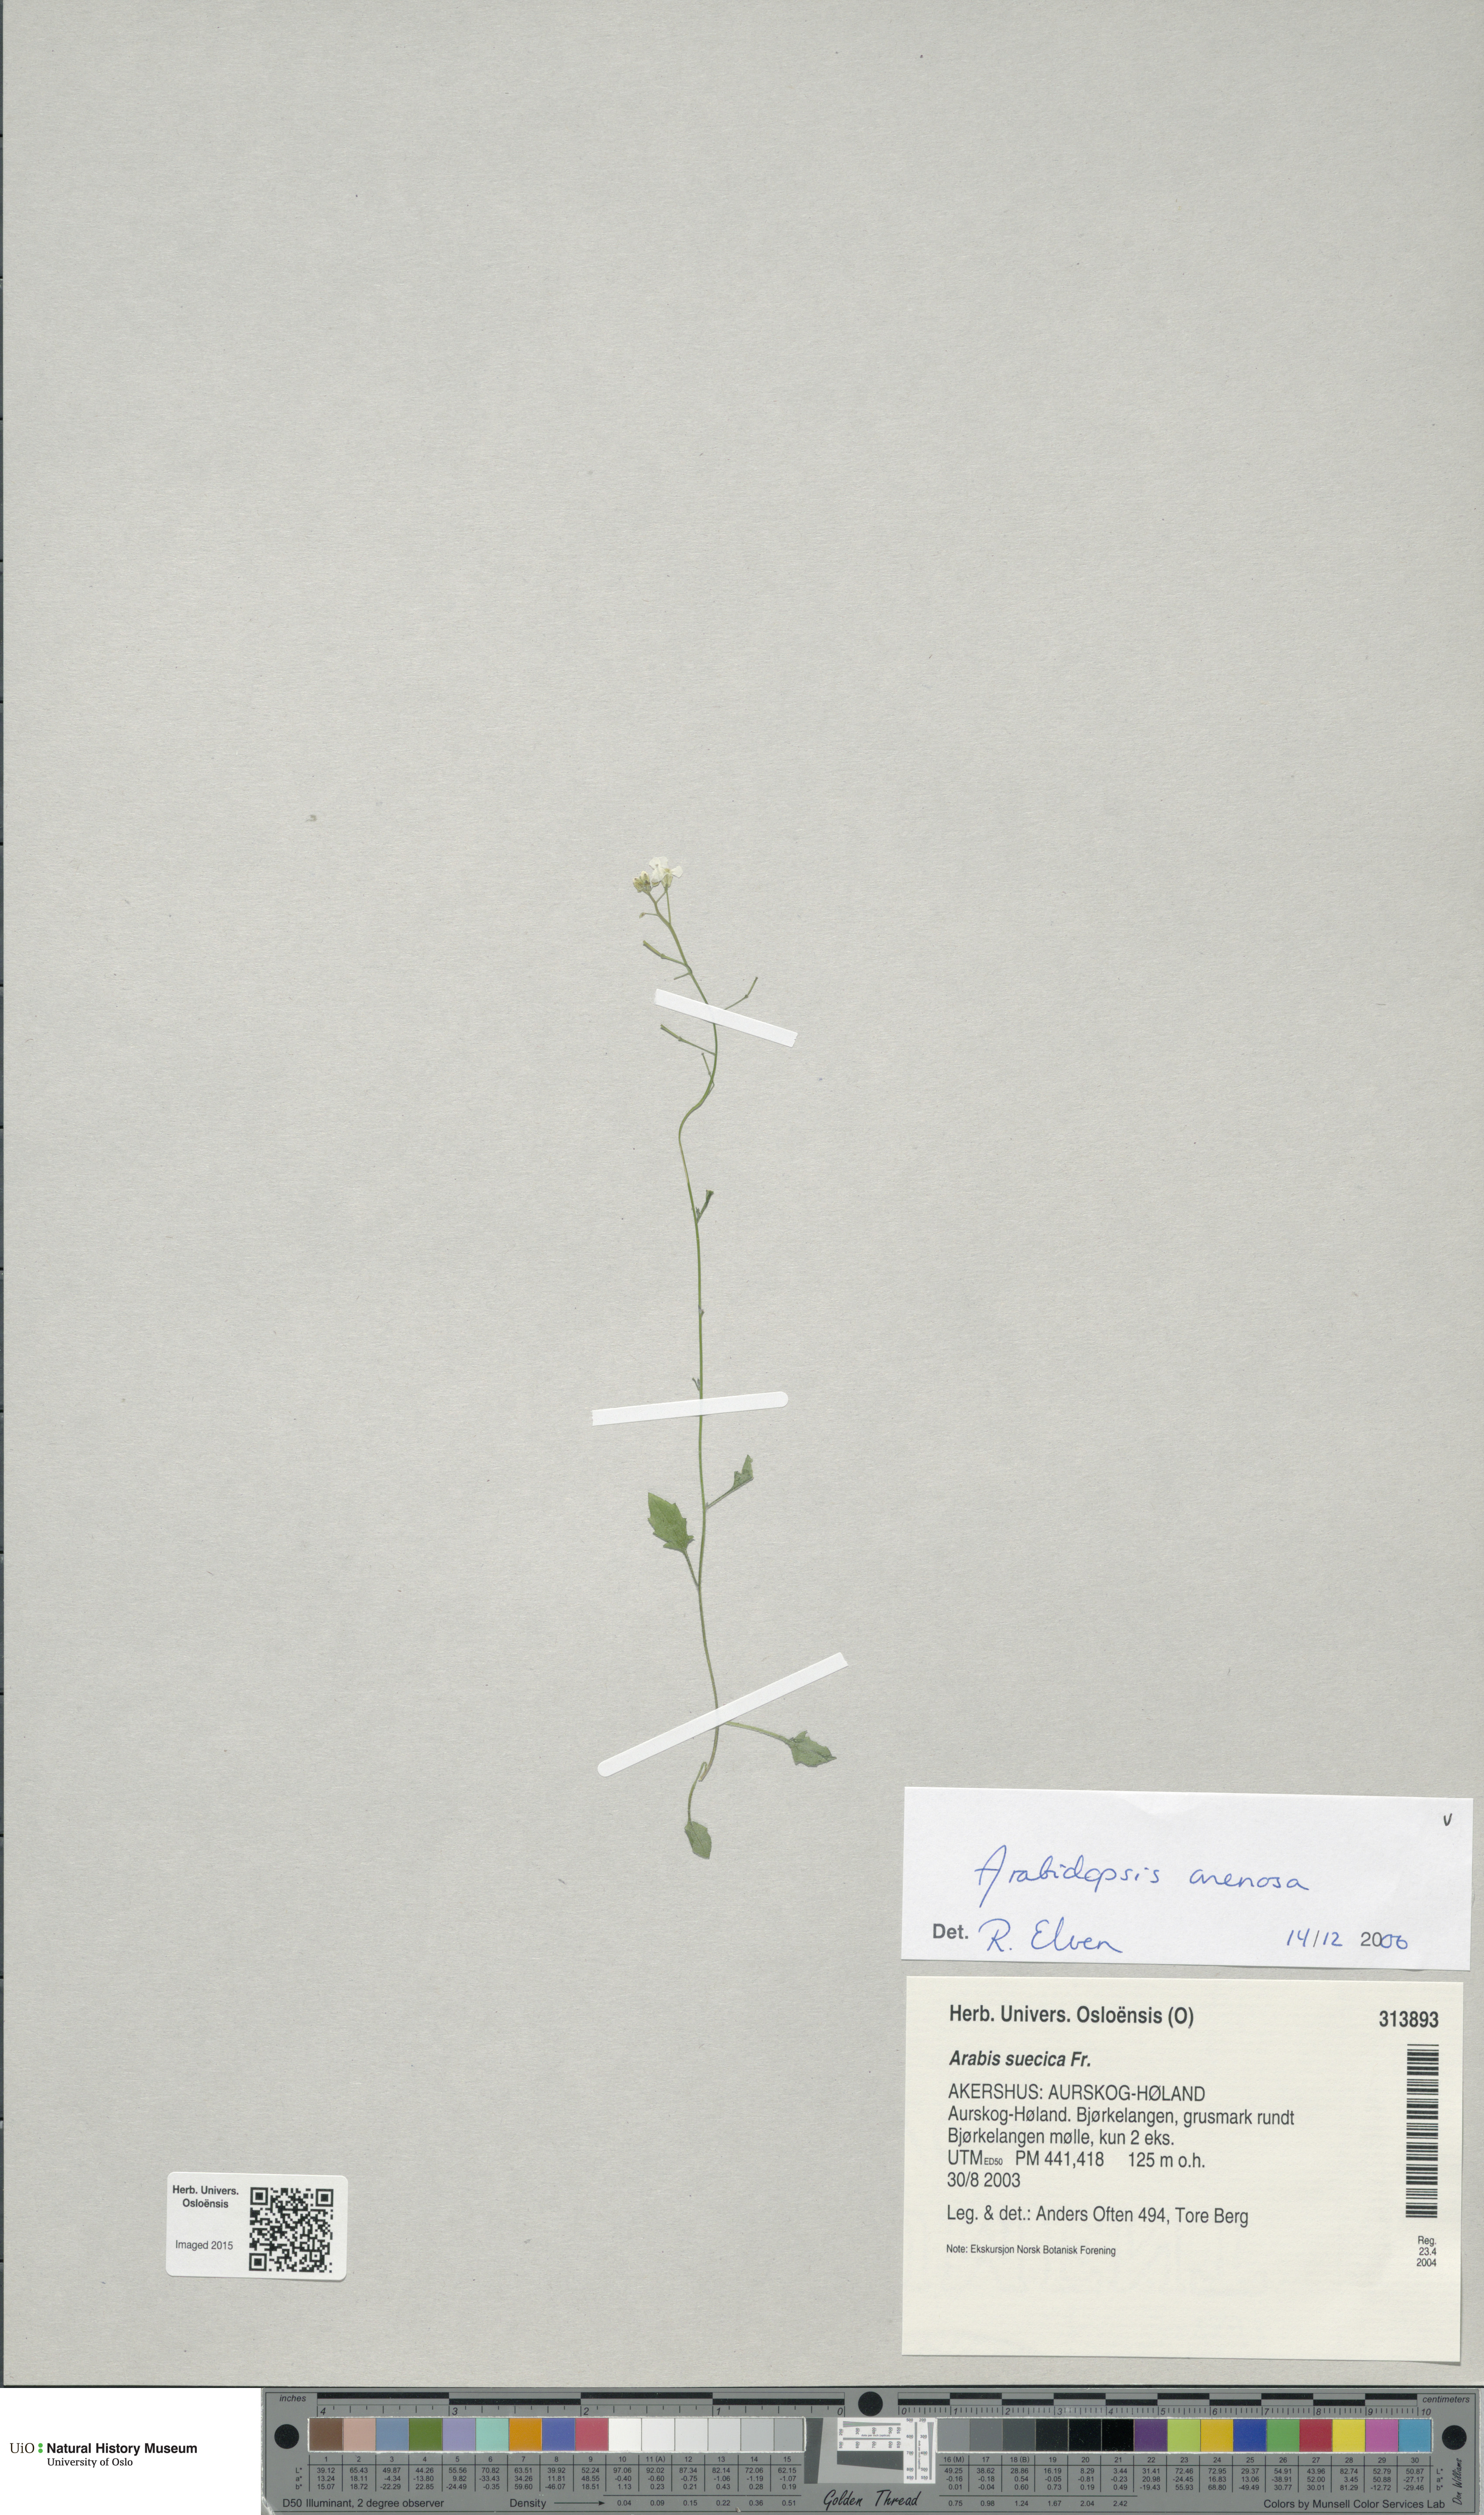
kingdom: Plantae
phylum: Tracheophyta
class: Magnoliopsida
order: Brassicales
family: Brassicaceae
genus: Arabidopsis
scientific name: Arabidopsis arenosa
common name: Sand rock-cress
